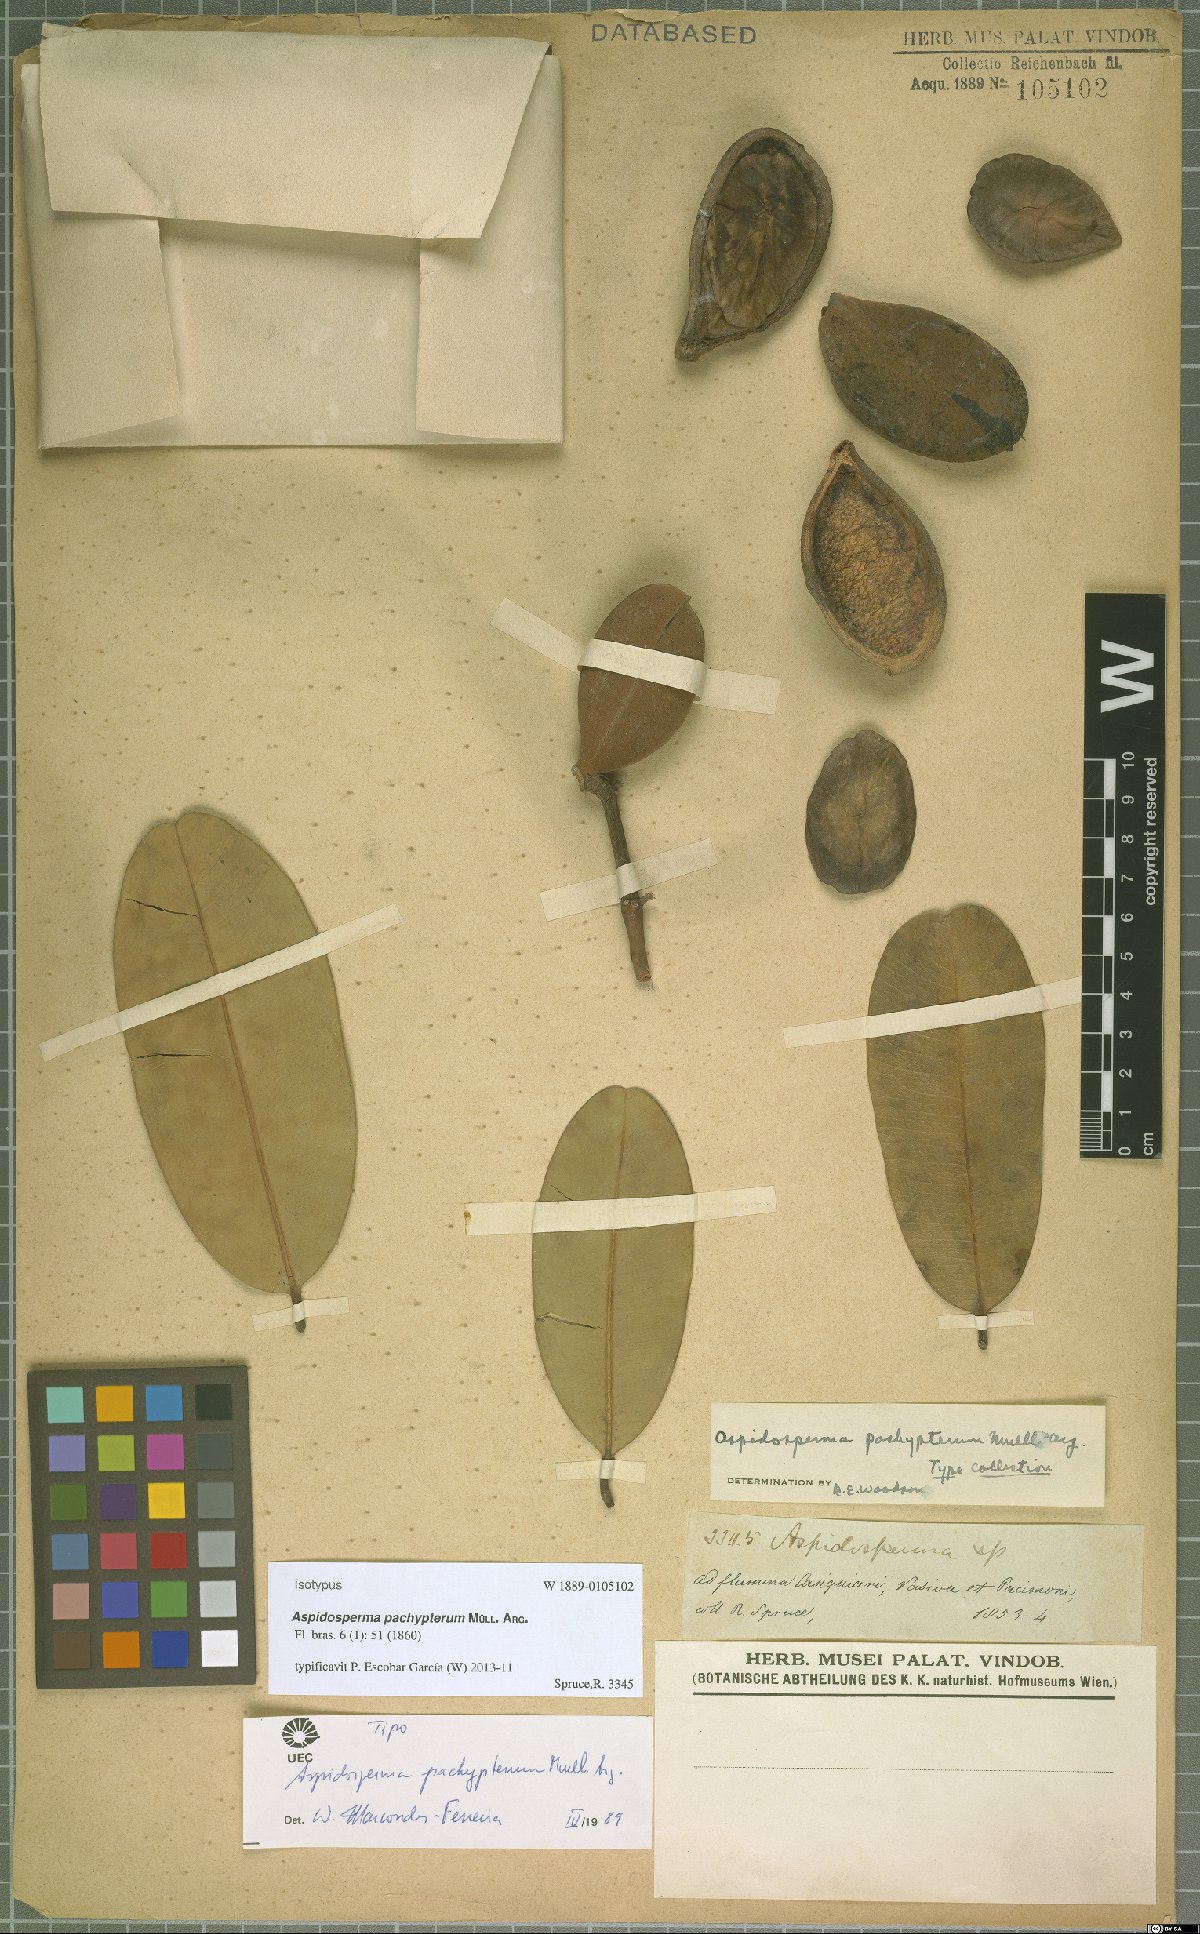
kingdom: Plantae
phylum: Tracheophyta
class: Magnoliopsida
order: Gentianales
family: Apocynaceae
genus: Aspidosperma
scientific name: Aspidosperma pachypterum
